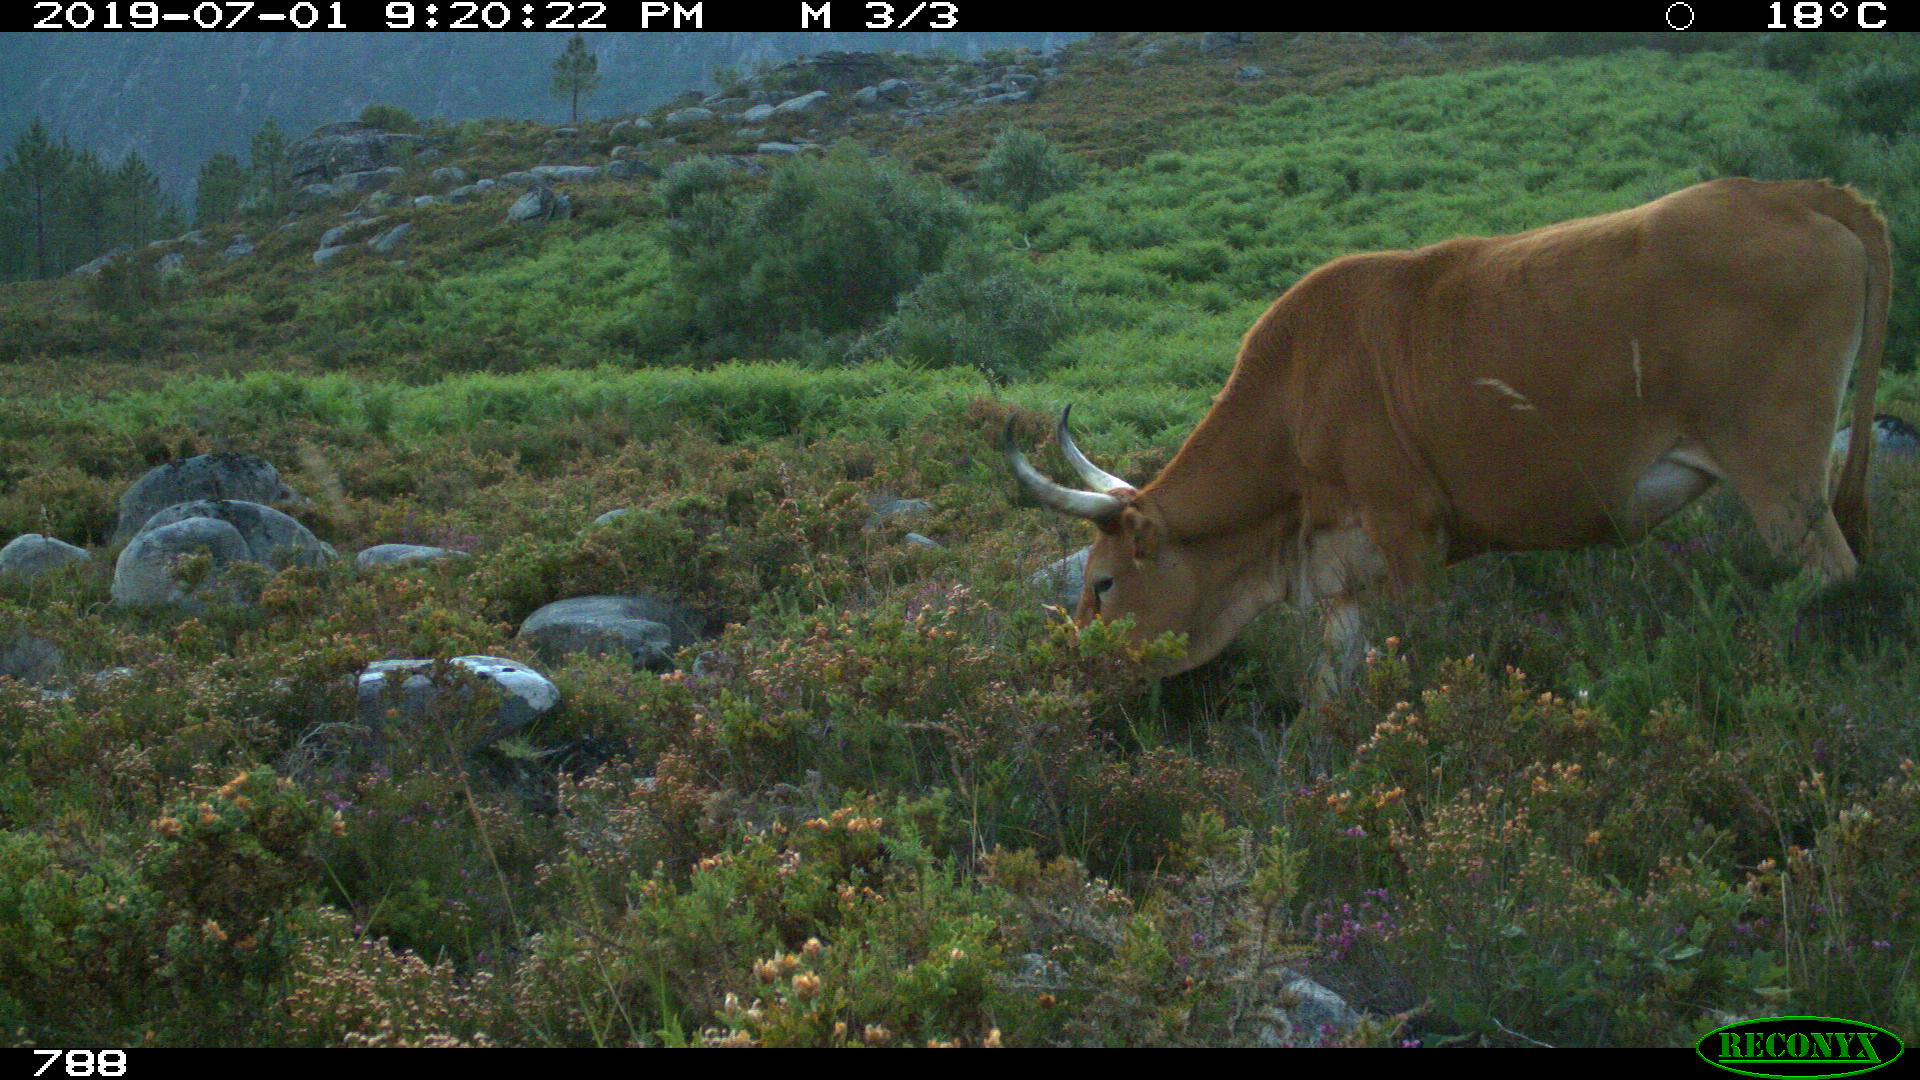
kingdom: Animalia
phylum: Chordata
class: Mammalia
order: Artiodactyla
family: Bovidae
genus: Bos
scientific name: Bos taurus
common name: Domesticated cattle
